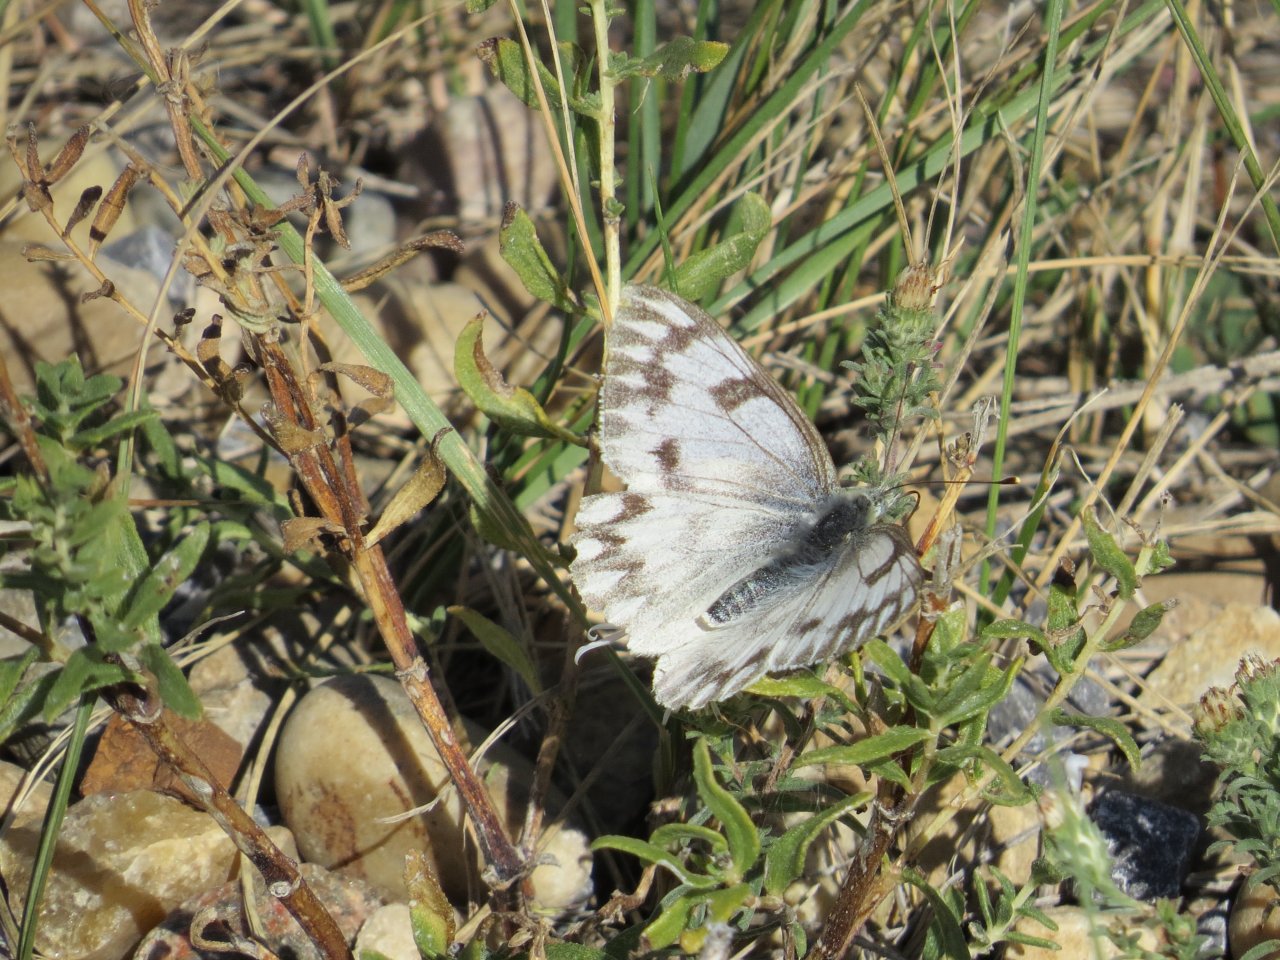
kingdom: Animalia
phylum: Arthropoda
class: Insecta
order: Lepidoptera
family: Pieridae
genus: Pontia
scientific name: Pontia occidentalis
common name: Western White
